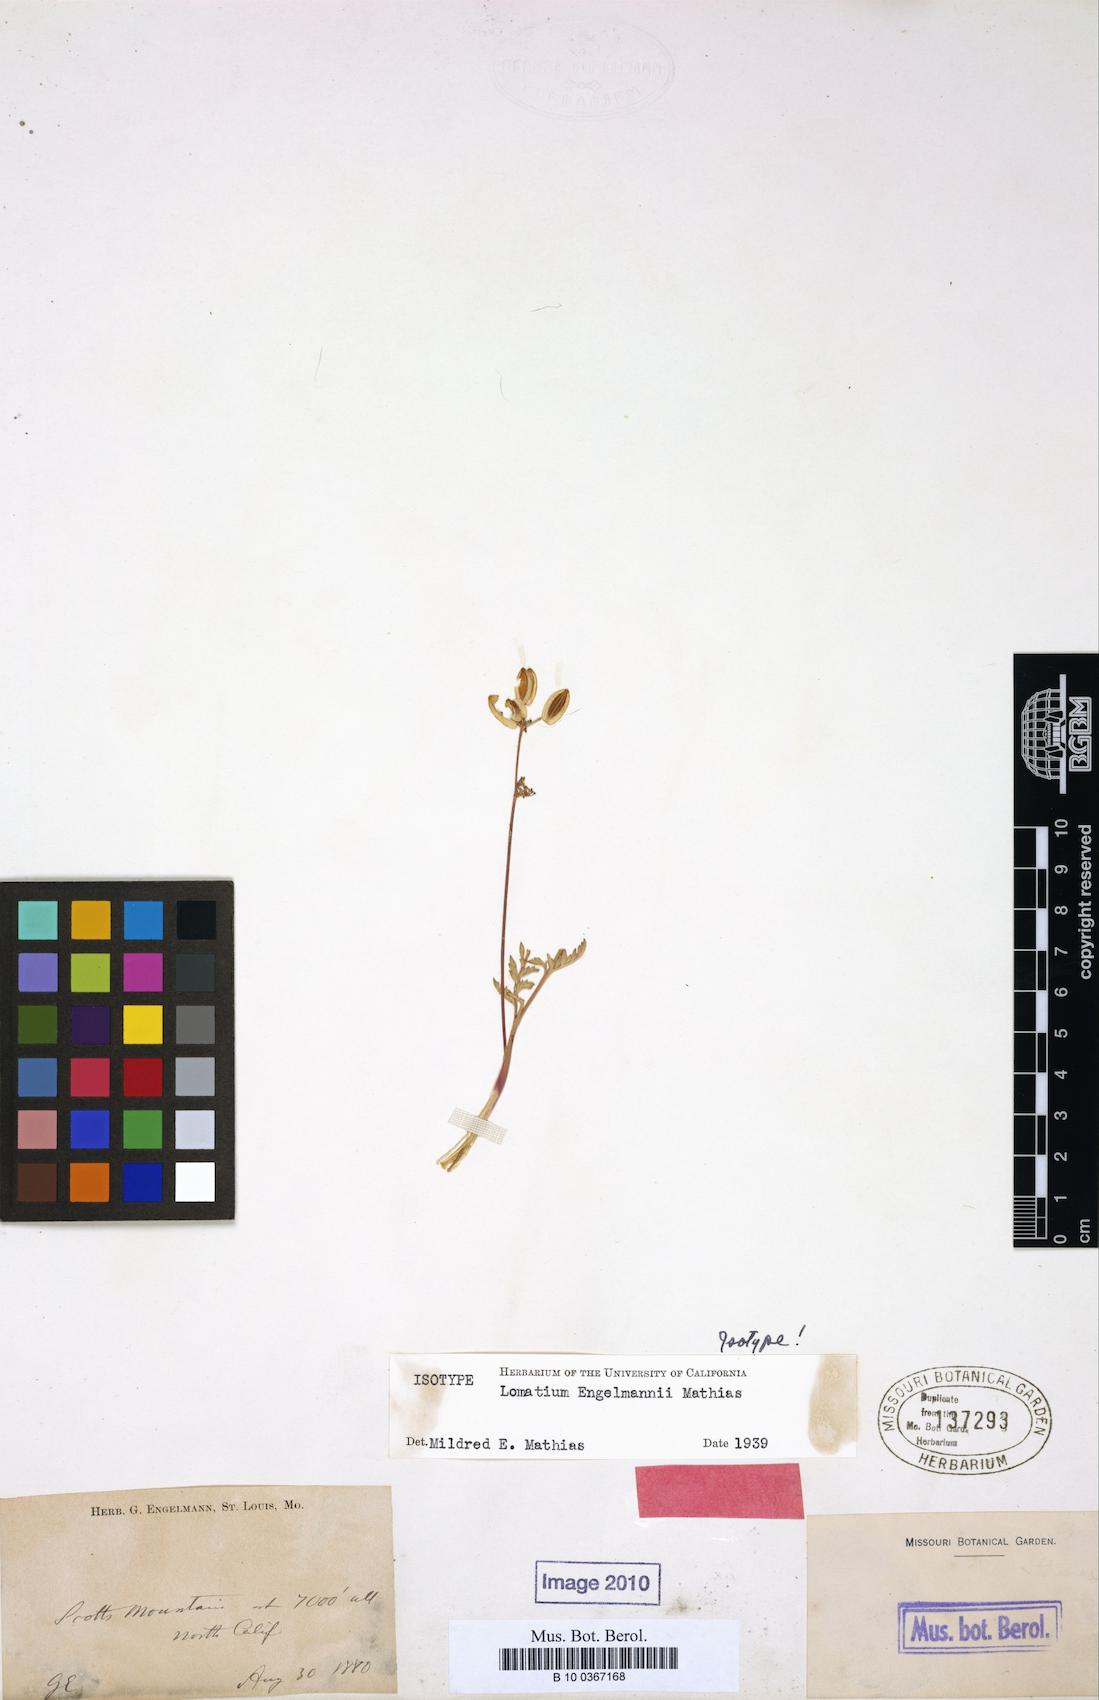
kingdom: Plantae
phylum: Tracheophyta
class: Magnoliopsida
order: Apiales
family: Apiaceae
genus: Lomatium
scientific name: Lomatium engelmannii
